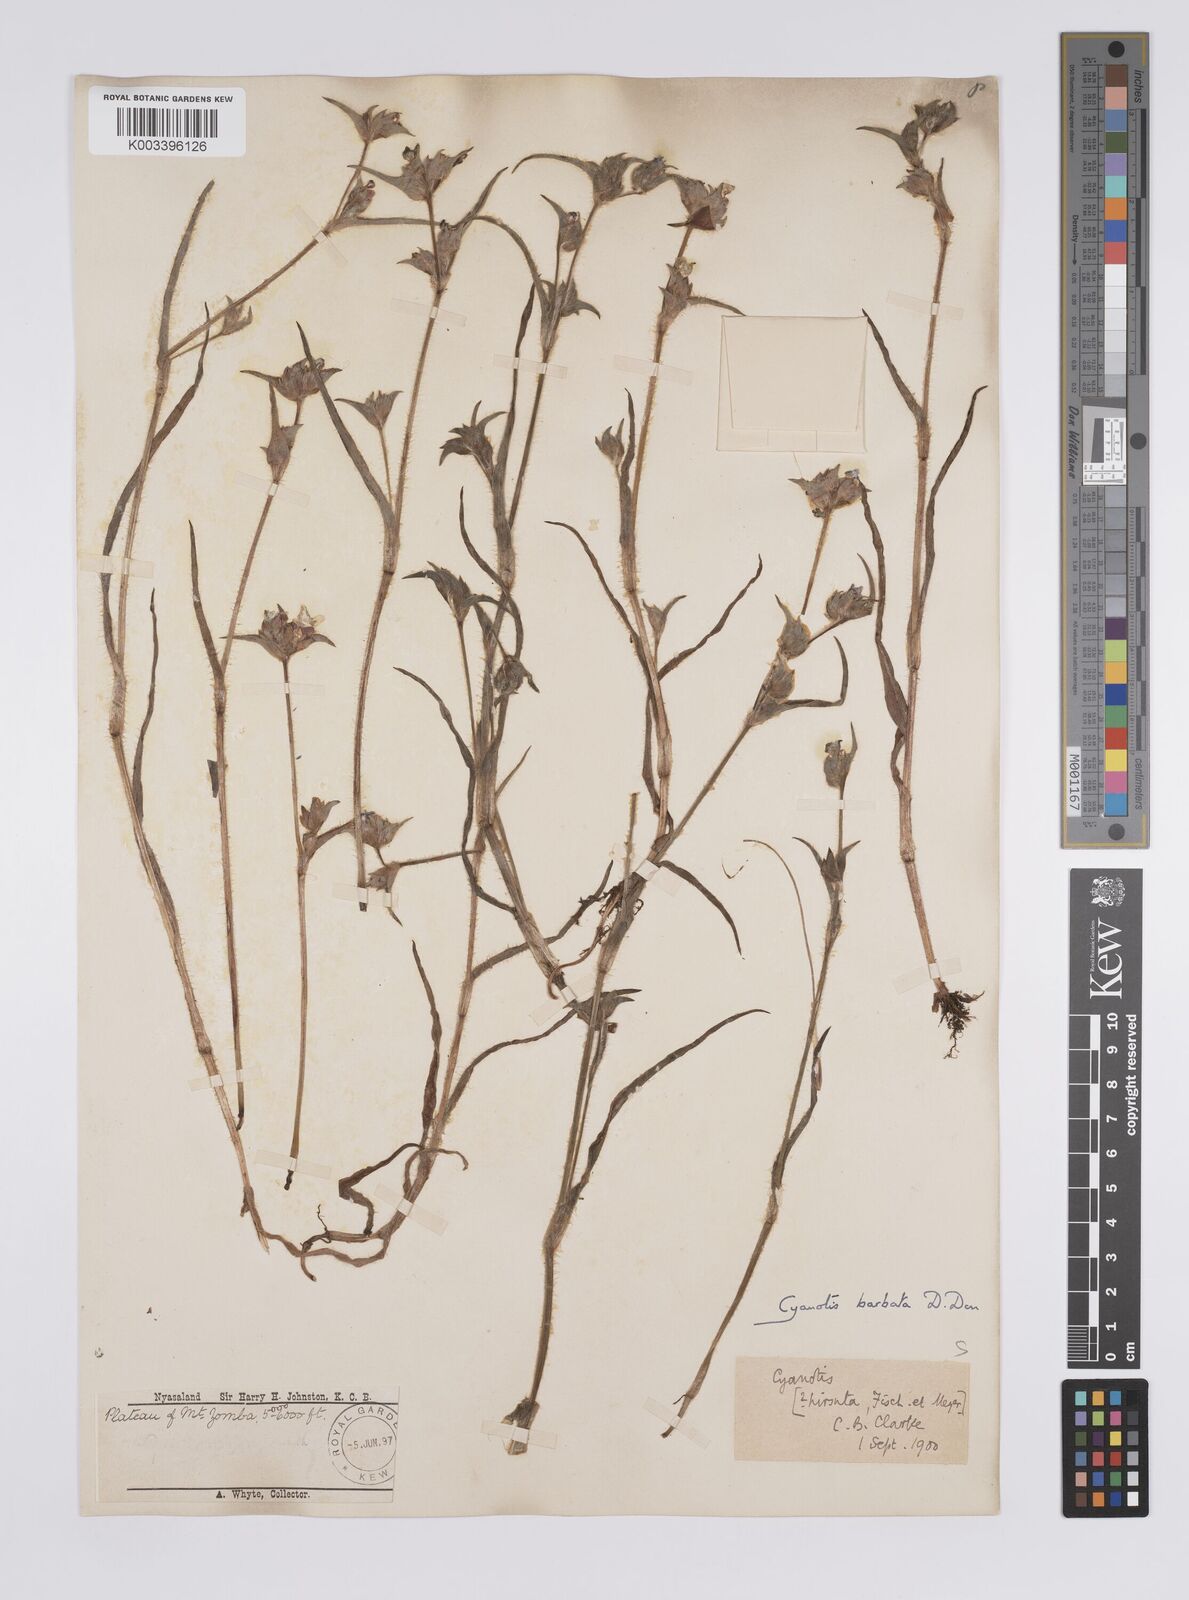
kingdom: Plantae
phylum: Tracheophyta
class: Liliopsida
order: Commelinales
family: Commelinaceae
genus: Cyanotis
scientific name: Cyanotis vaga
